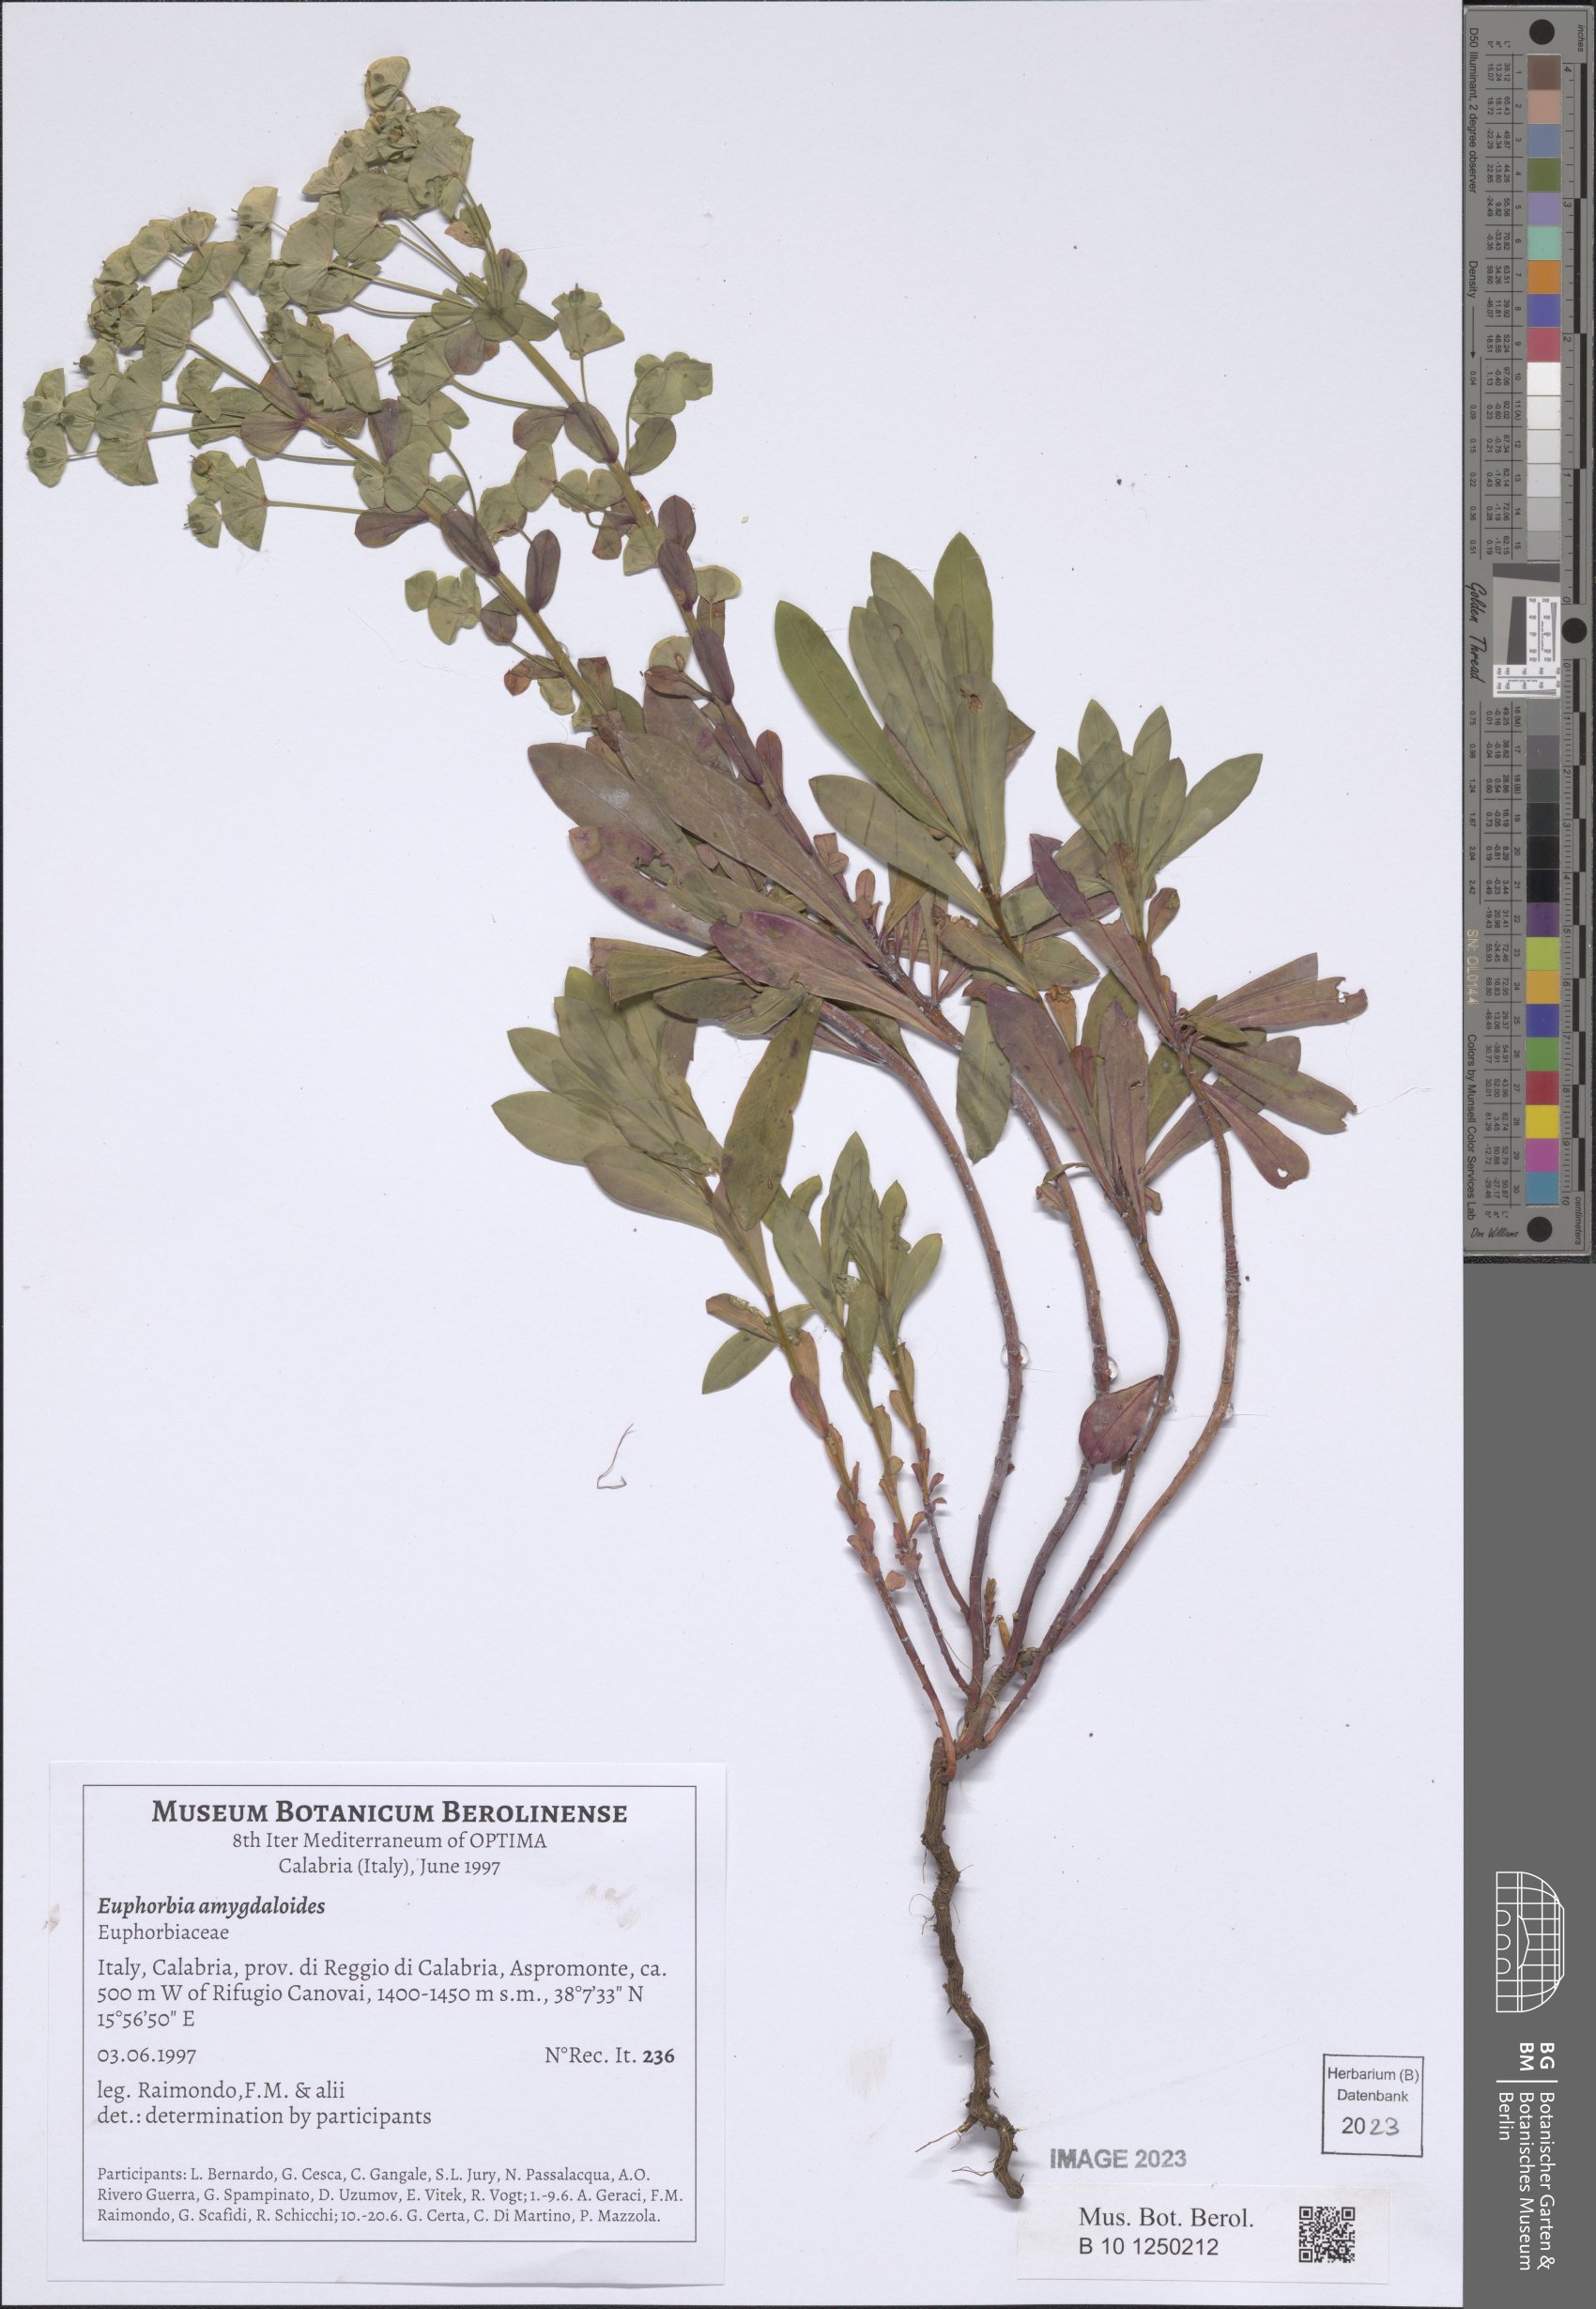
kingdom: Plantae
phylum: Tracheophyta
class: Magnoliopsida
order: Malpighiales
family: Euphorbiaceae
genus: Euphorbia
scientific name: Euphorbia amygdaloides
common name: Wood spurge
